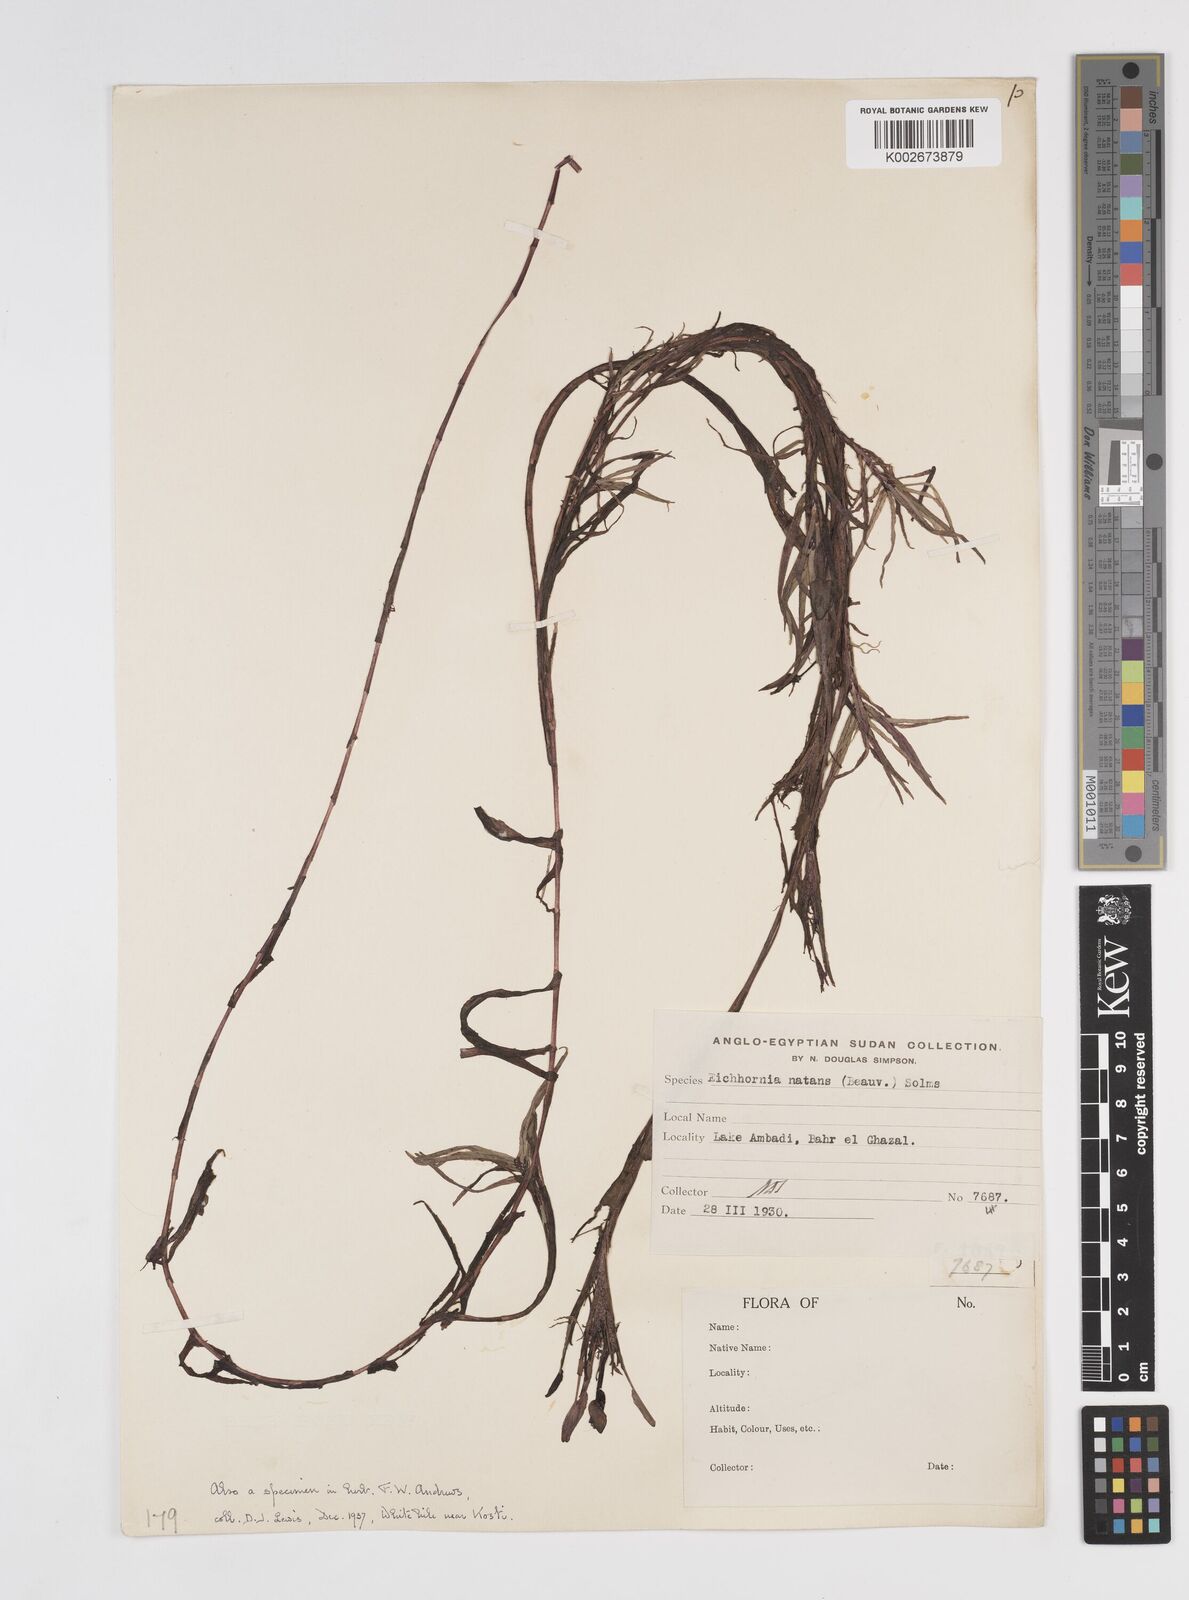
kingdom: Plantae
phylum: Tracheophyta
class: Liliopsida
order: Commelinales
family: Pontederiaceae
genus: Pontederia
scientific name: Pontederia diversifolia
